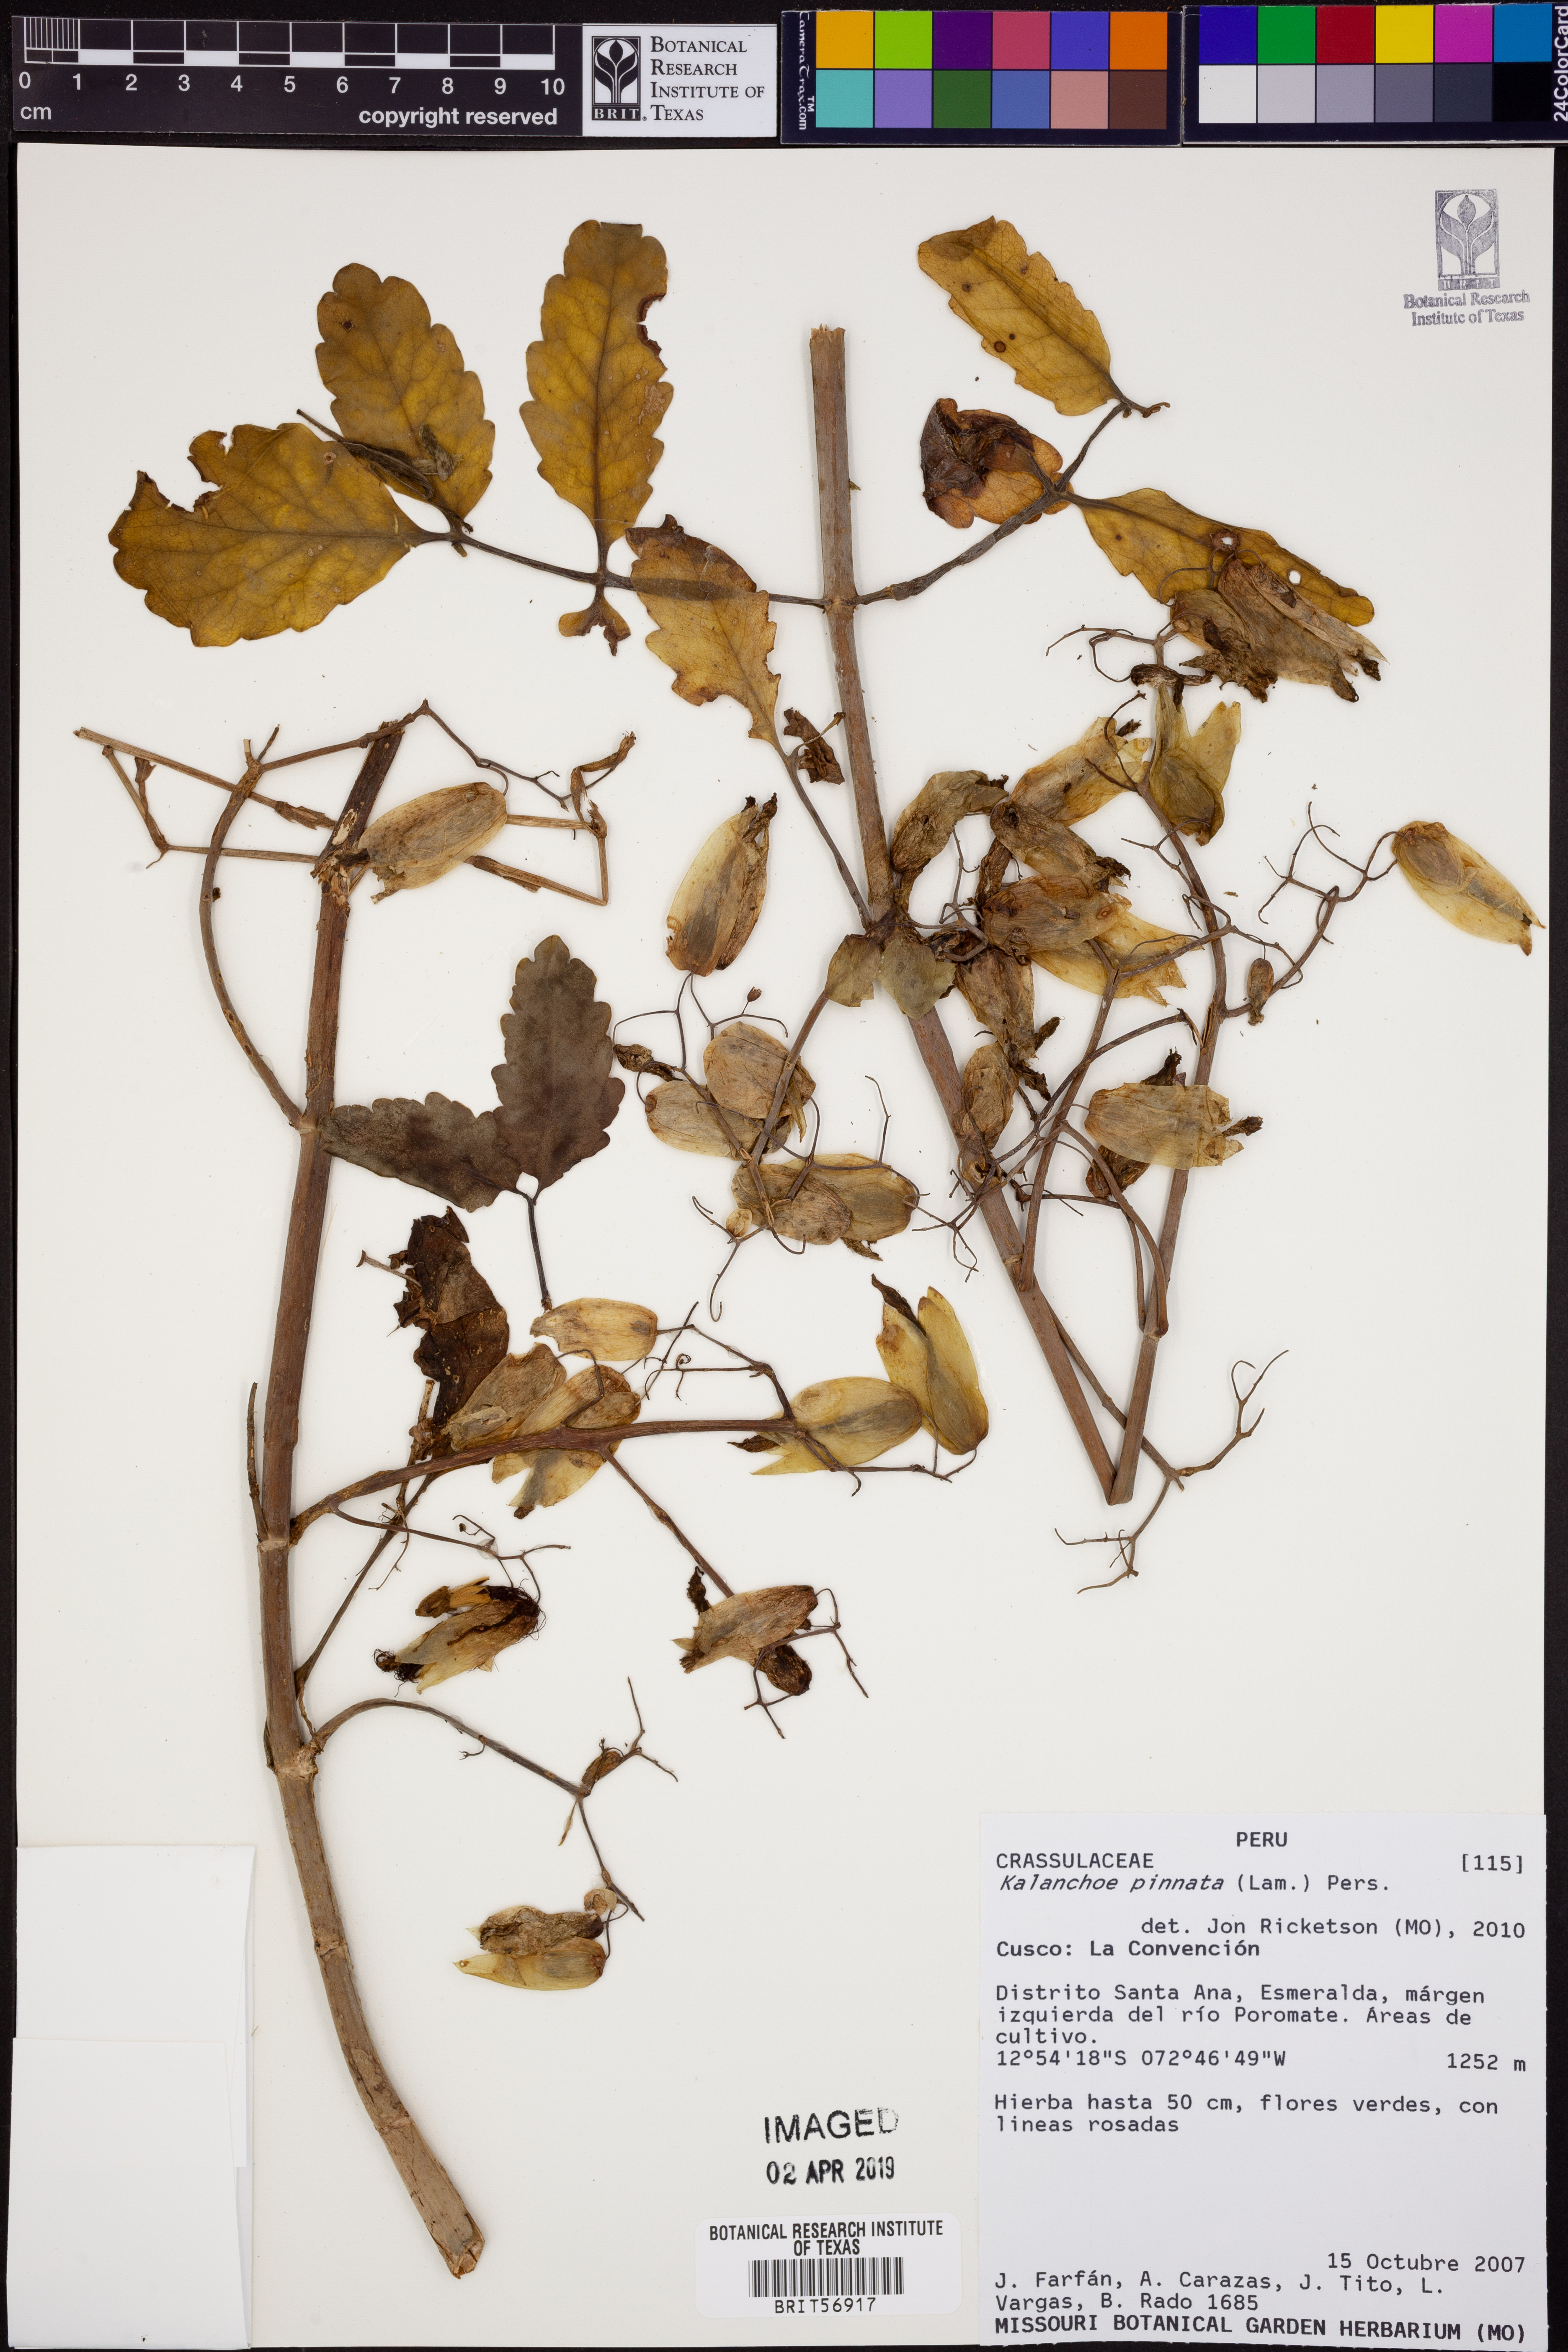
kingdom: Plantae
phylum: Tracheophyta
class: Magnoliopsida
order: Saxifragales
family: Crassulaceae
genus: Kalanchoe
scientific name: Kalanchoe pinnata
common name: Cathedral bells
